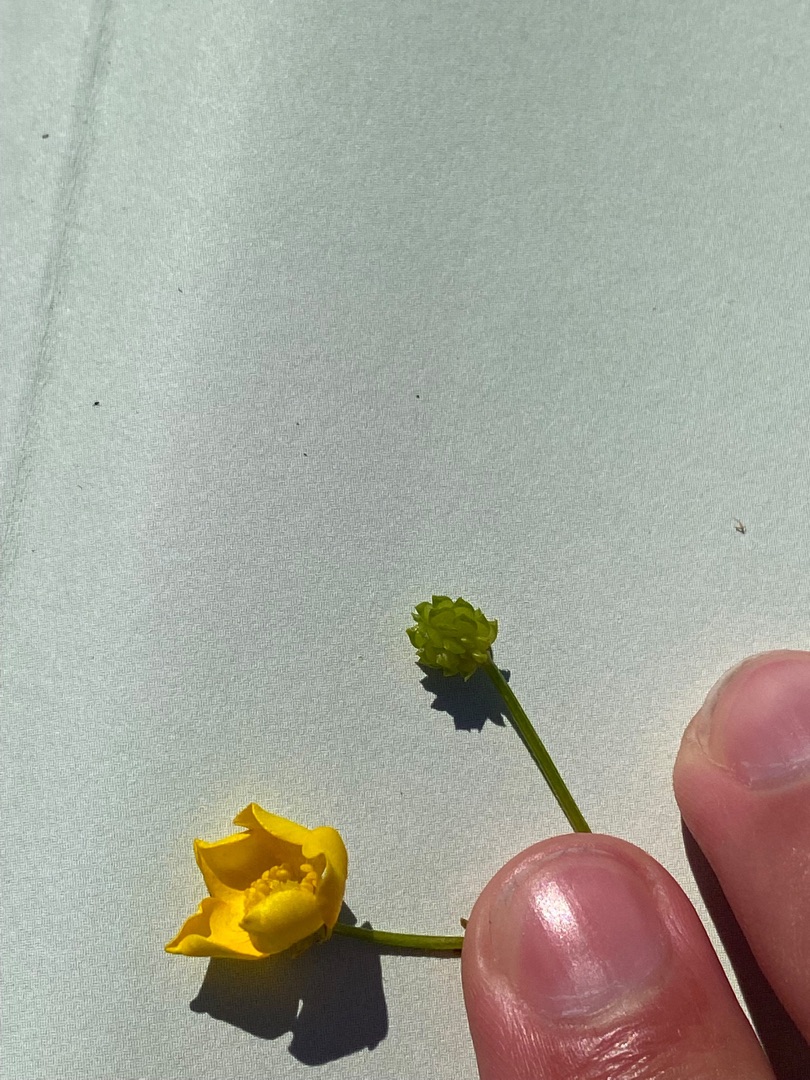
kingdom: Plantae
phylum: Tracheophyta
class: Magnoliopsida
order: Ranunculales
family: Ranunculaceae
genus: Ranunculus
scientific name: Ranunculus sardous
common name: Stivhåret ranunkel
